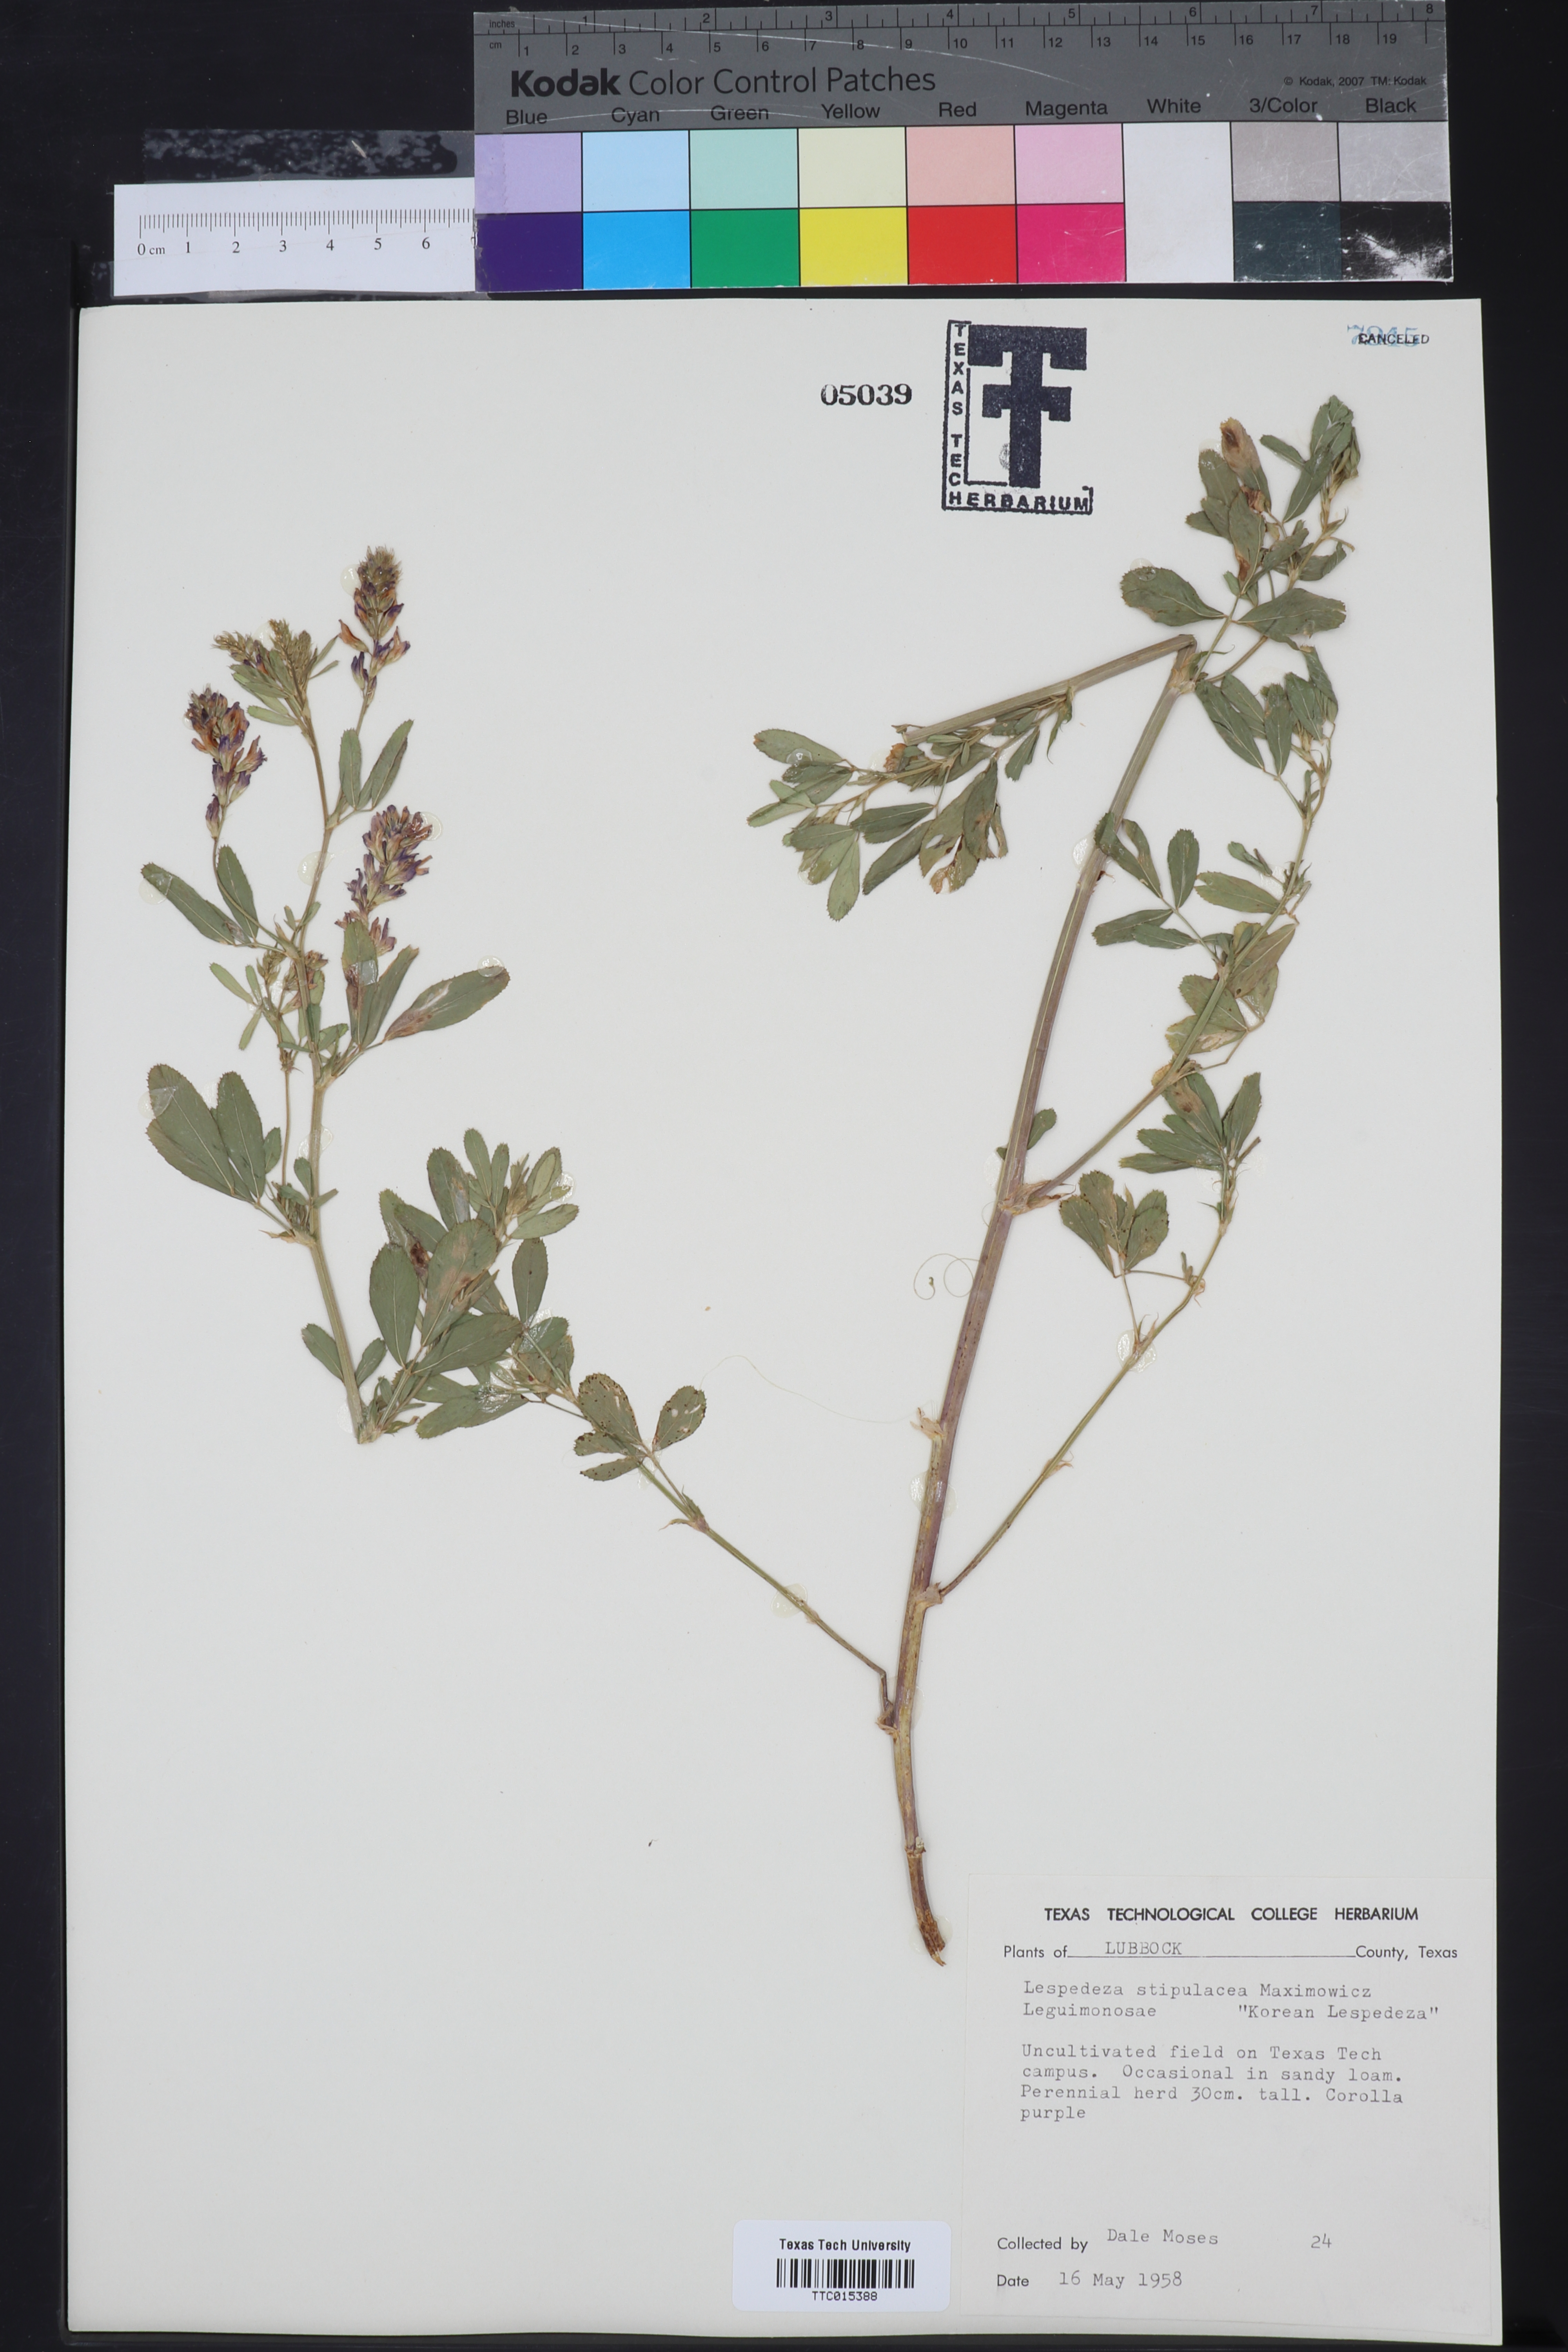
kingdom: Plantae
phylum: Tracheophyta
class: Magnoliopsida
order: Fabales
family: Fabaceae
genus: Kummerowia
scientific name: Kummerowia stipulacea
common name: Korean clover
